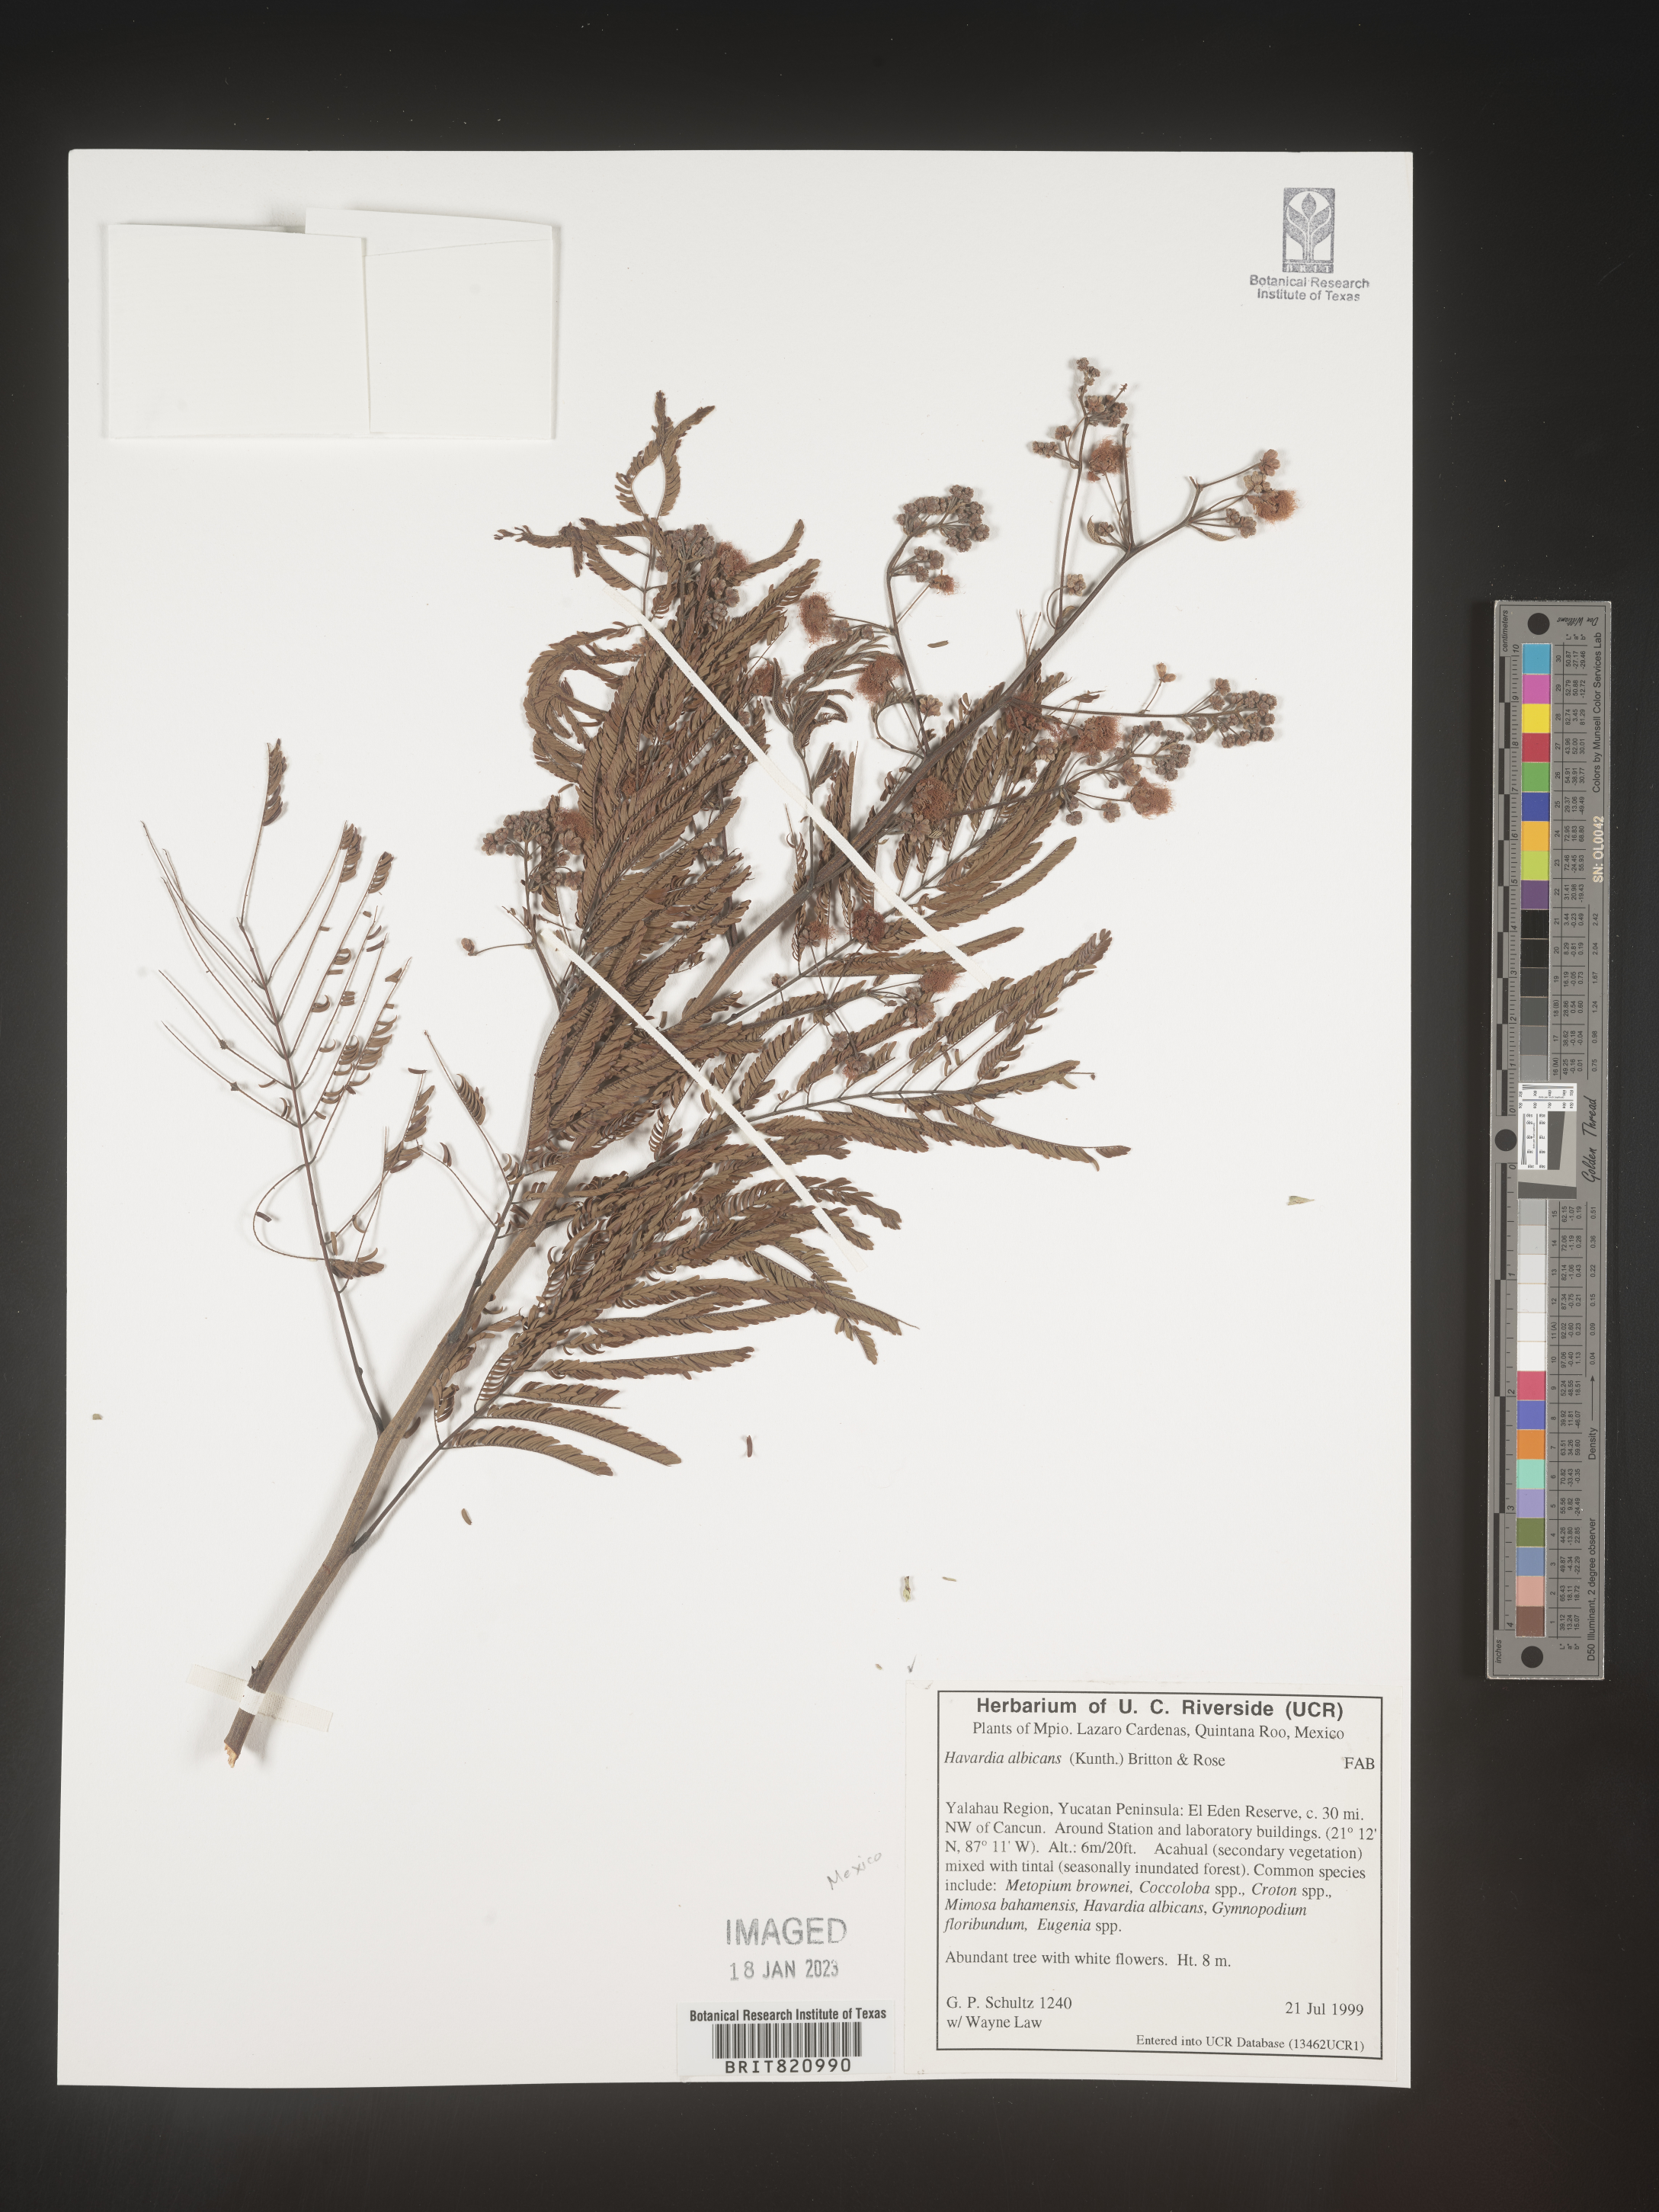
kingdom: Plantae
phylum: Tracheophyta
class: Magnoliopsida
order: Fabales
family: Fabaceae
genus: Havardia
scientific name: Havardia
